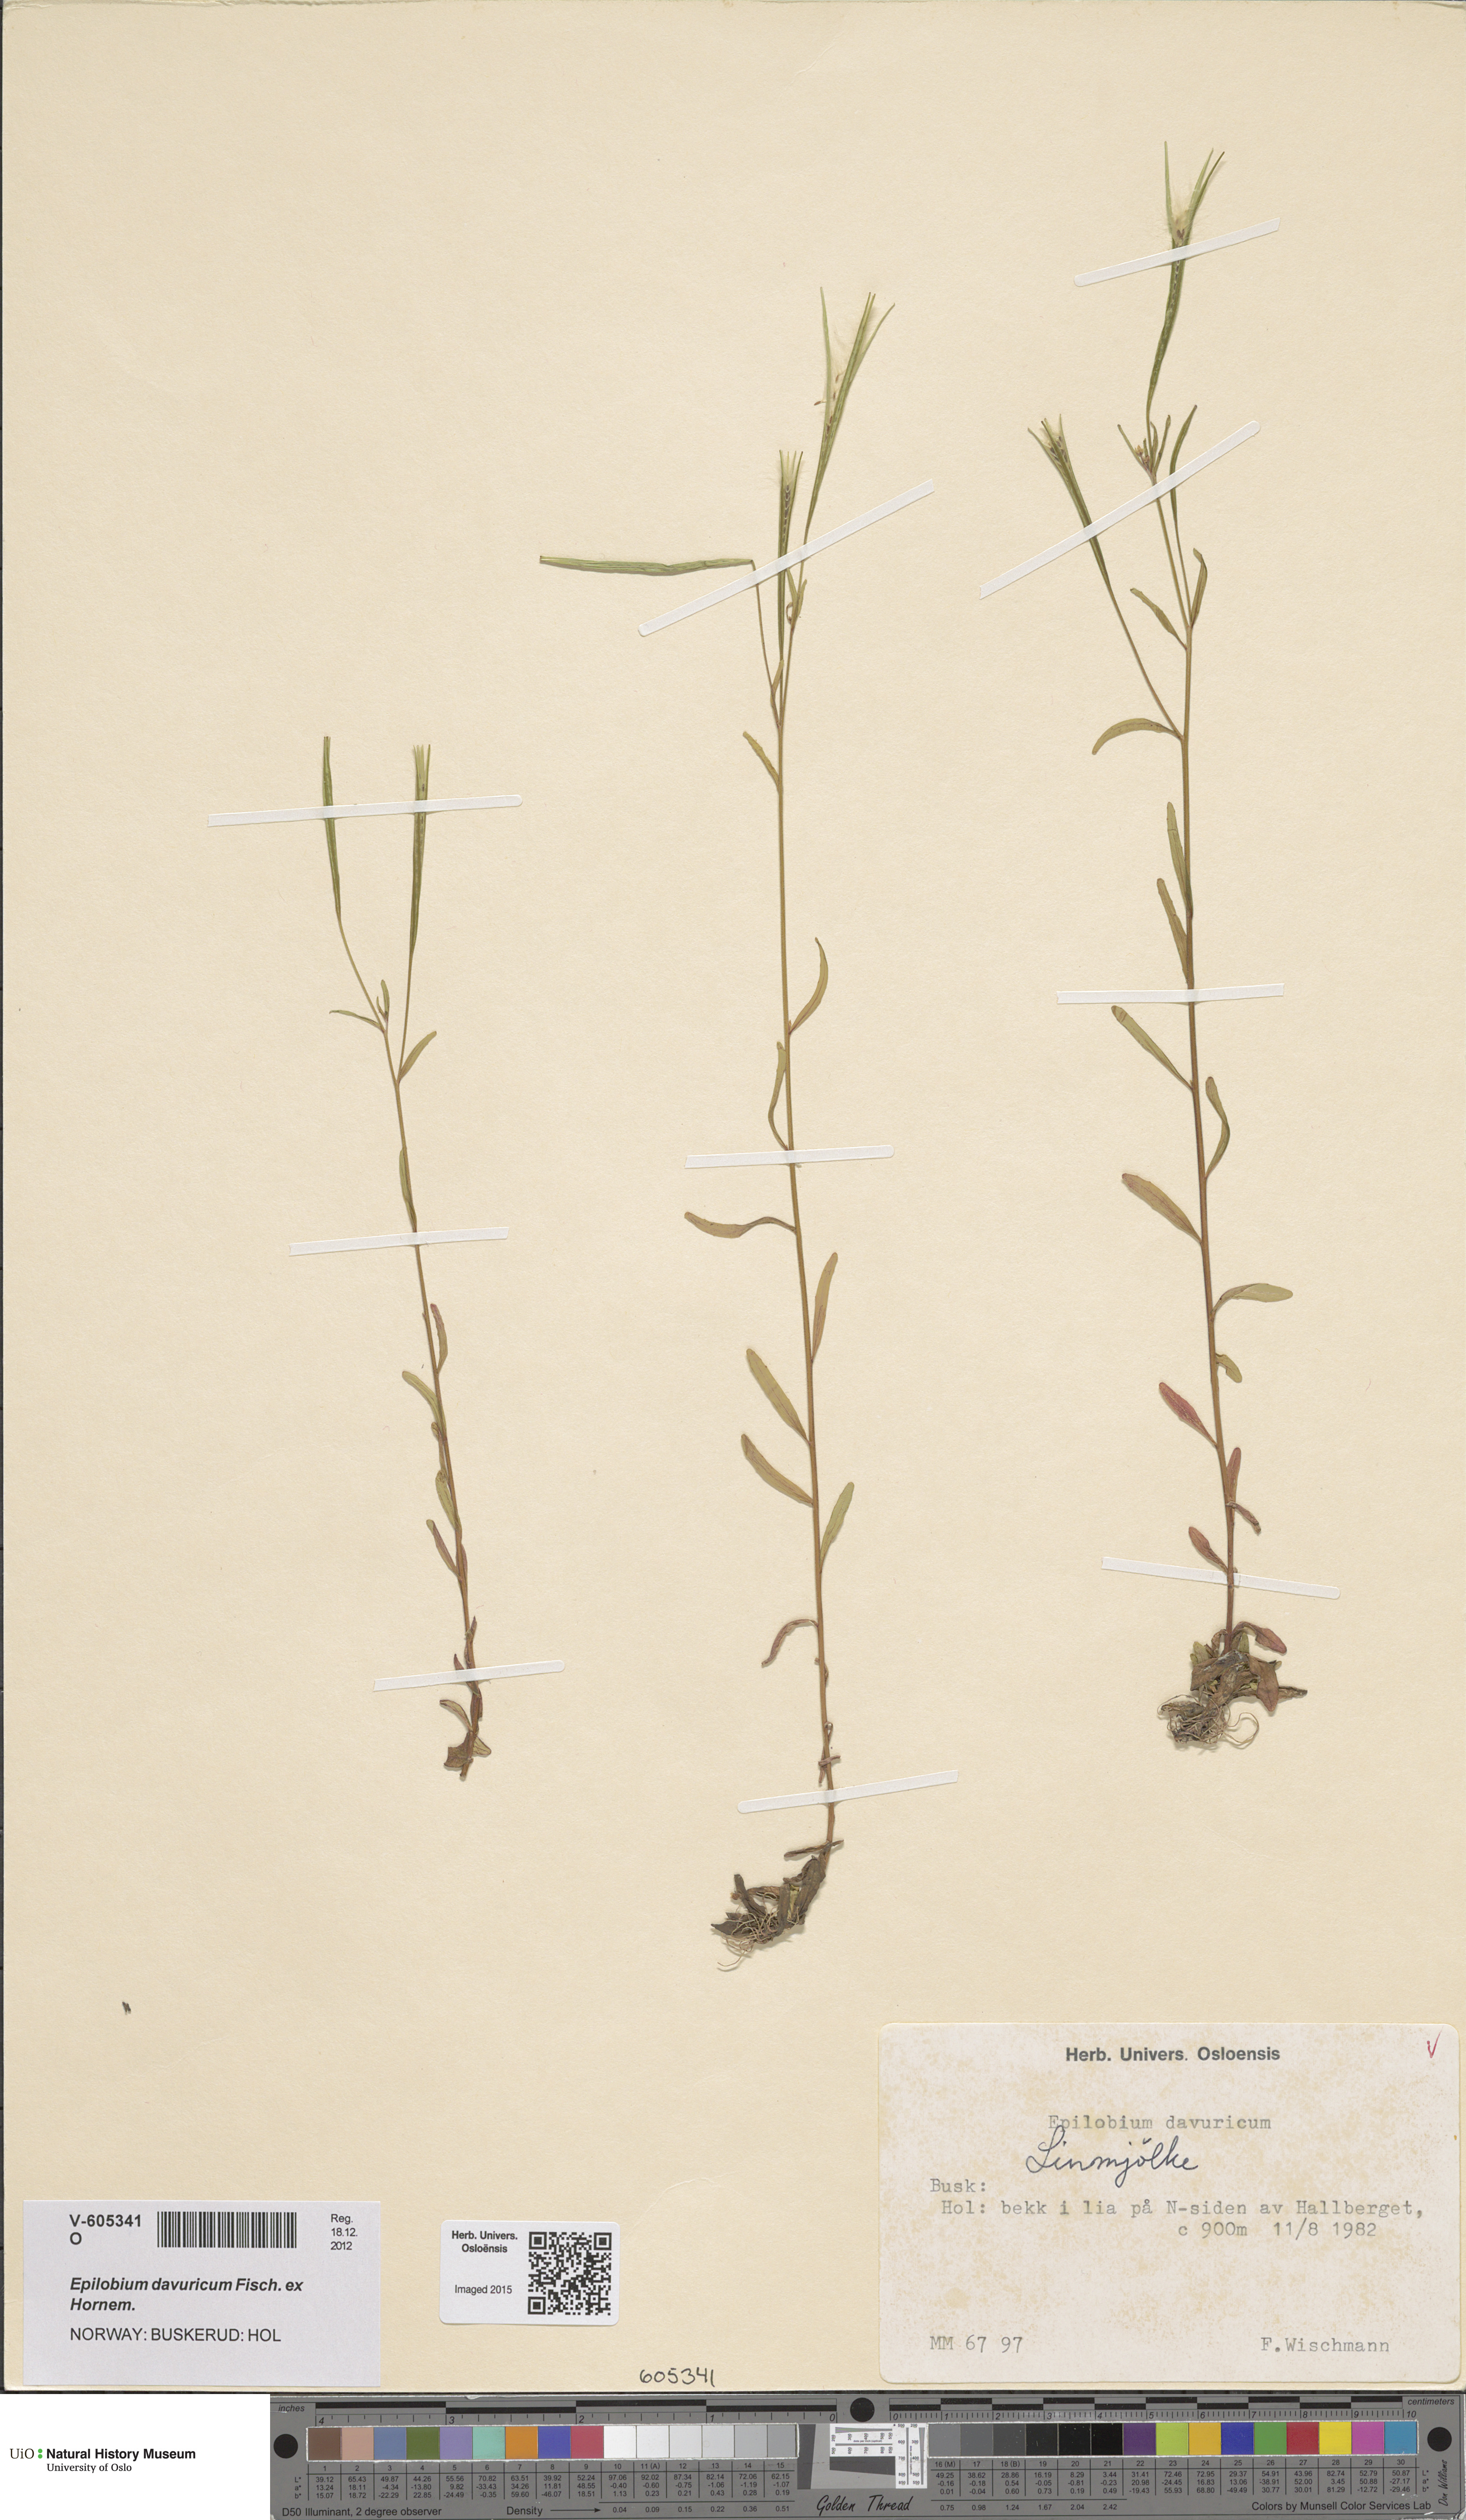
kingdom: Plantae
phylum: Tracheophyta
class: Magnoliopsida
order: Myrtales
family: Onagraceae
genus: Epilobium
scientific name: Epilobium davuricum
